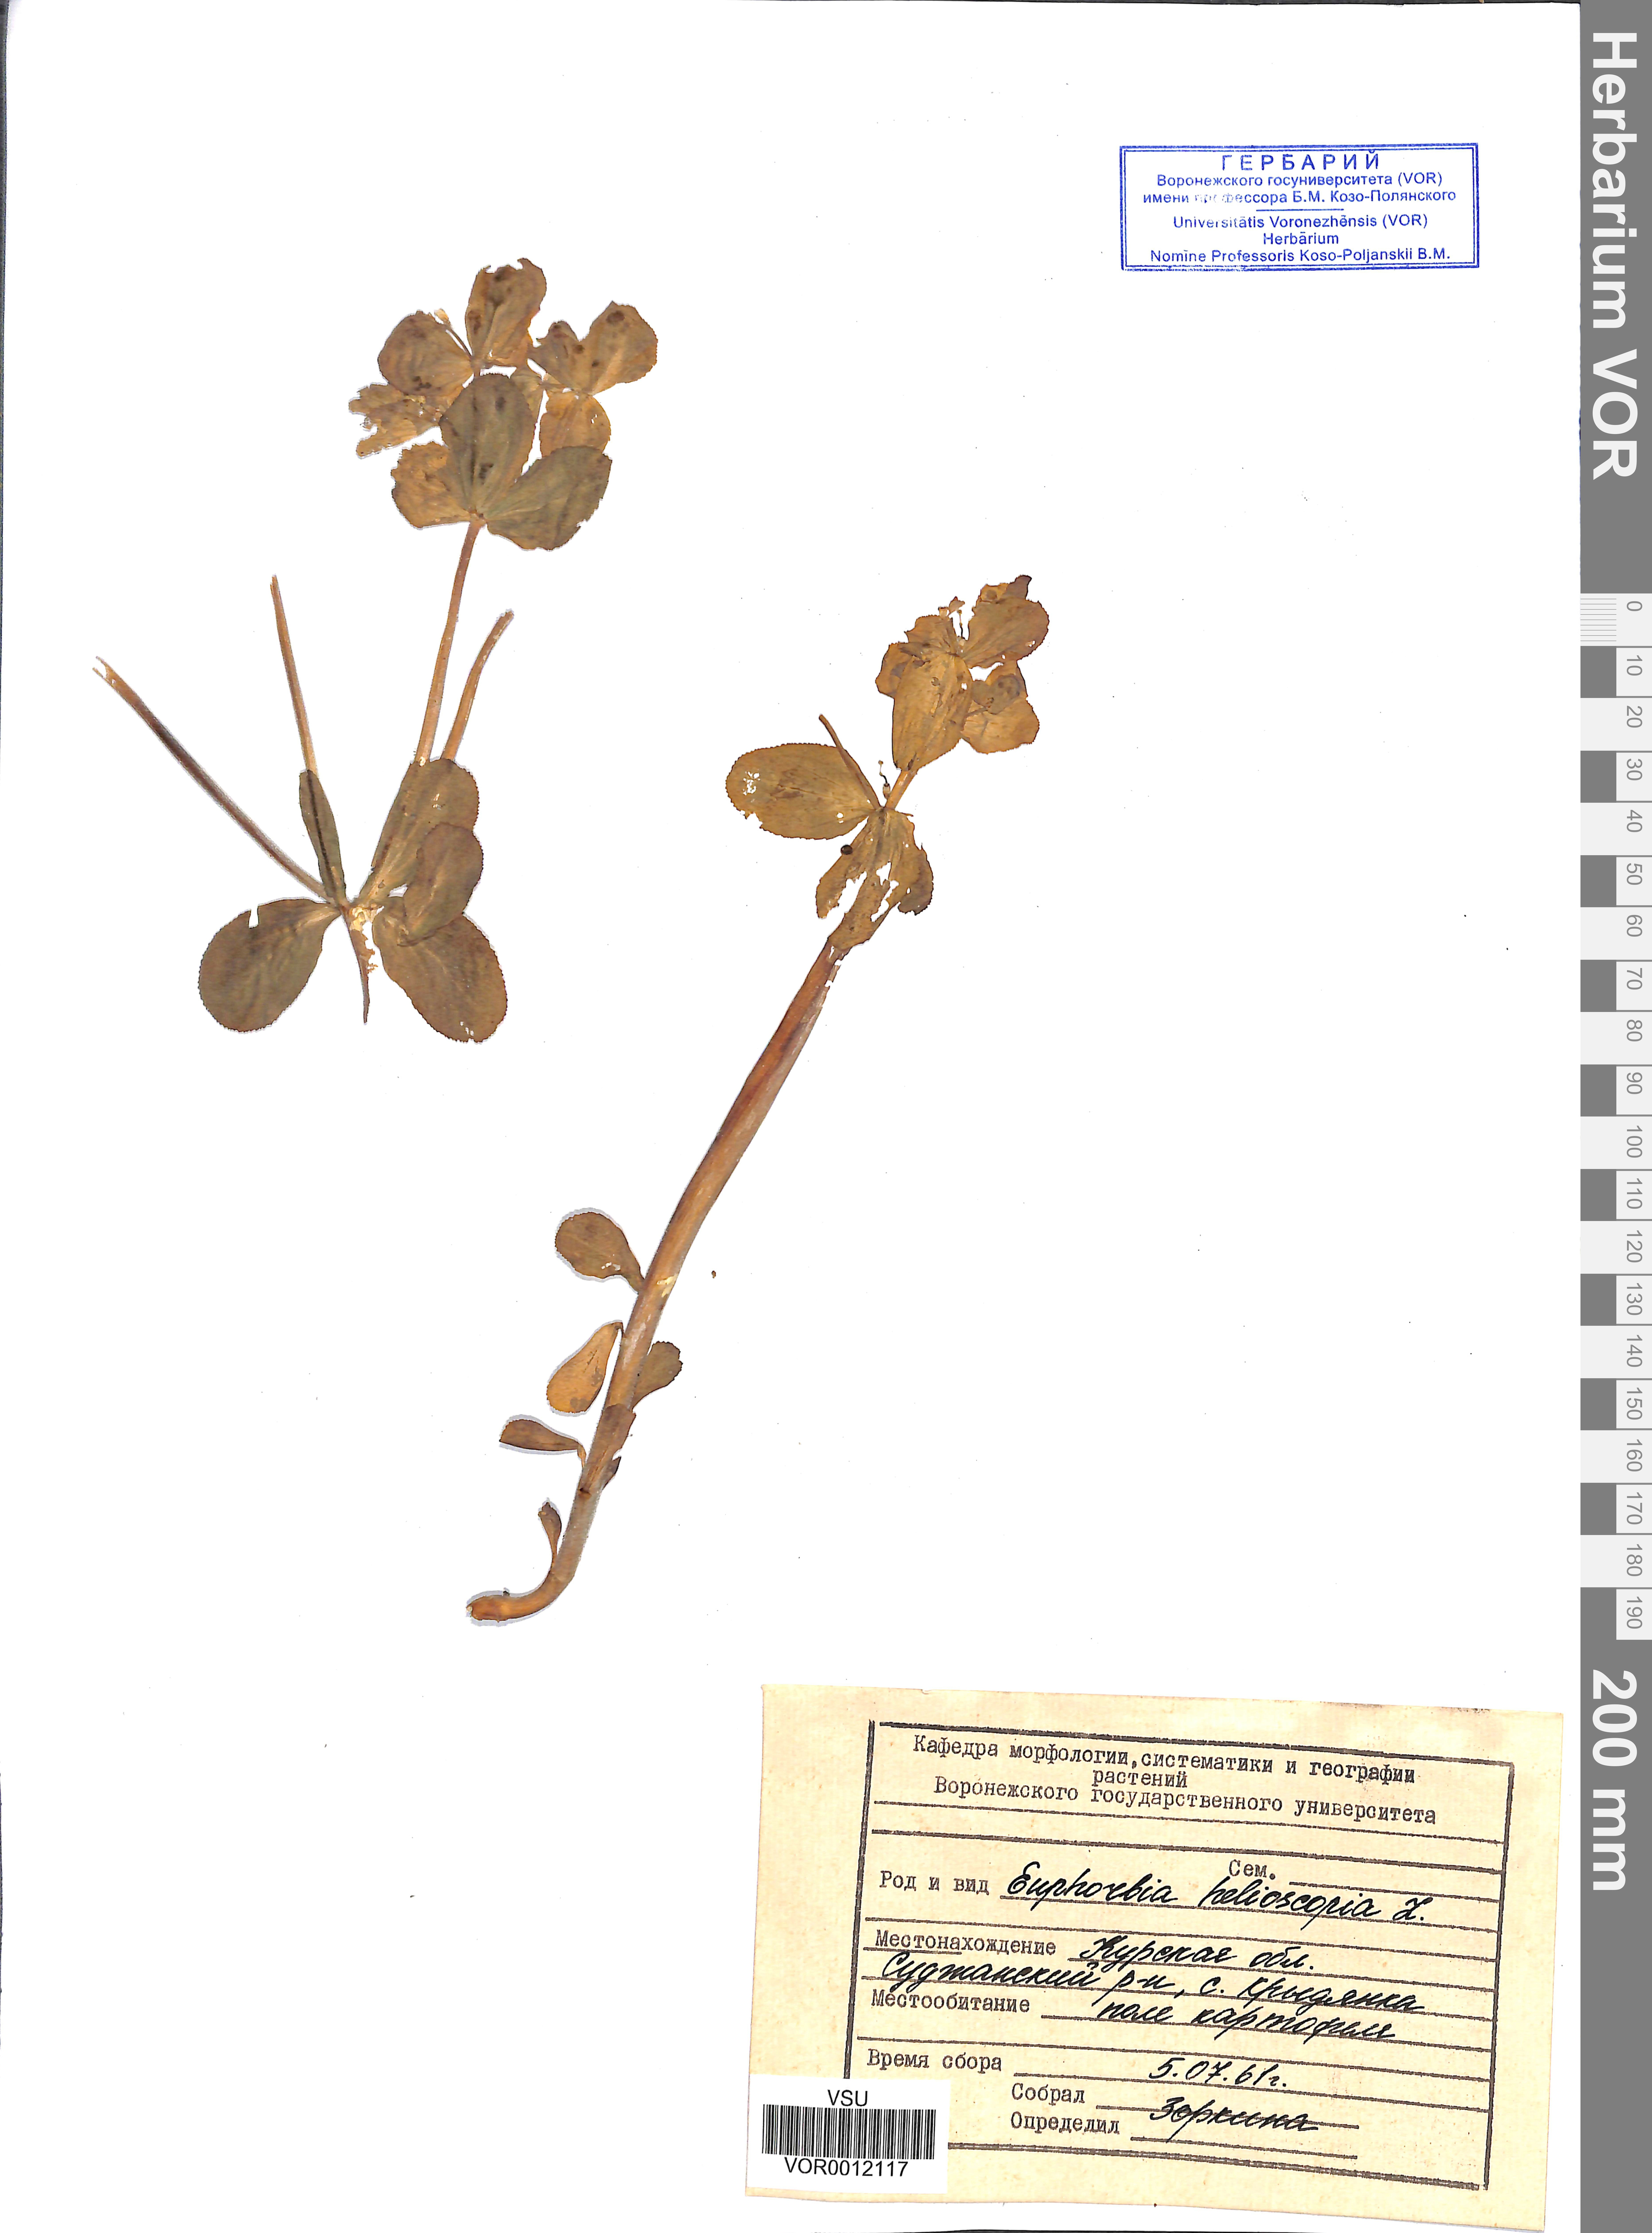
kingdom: Plantae
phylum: Tracheophyta
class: Magnoliopsida
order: Malpighiales
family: Euphorbiaceae
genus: Euphorbia
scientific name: Euphorbia helioscopia
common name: Sun spurge
